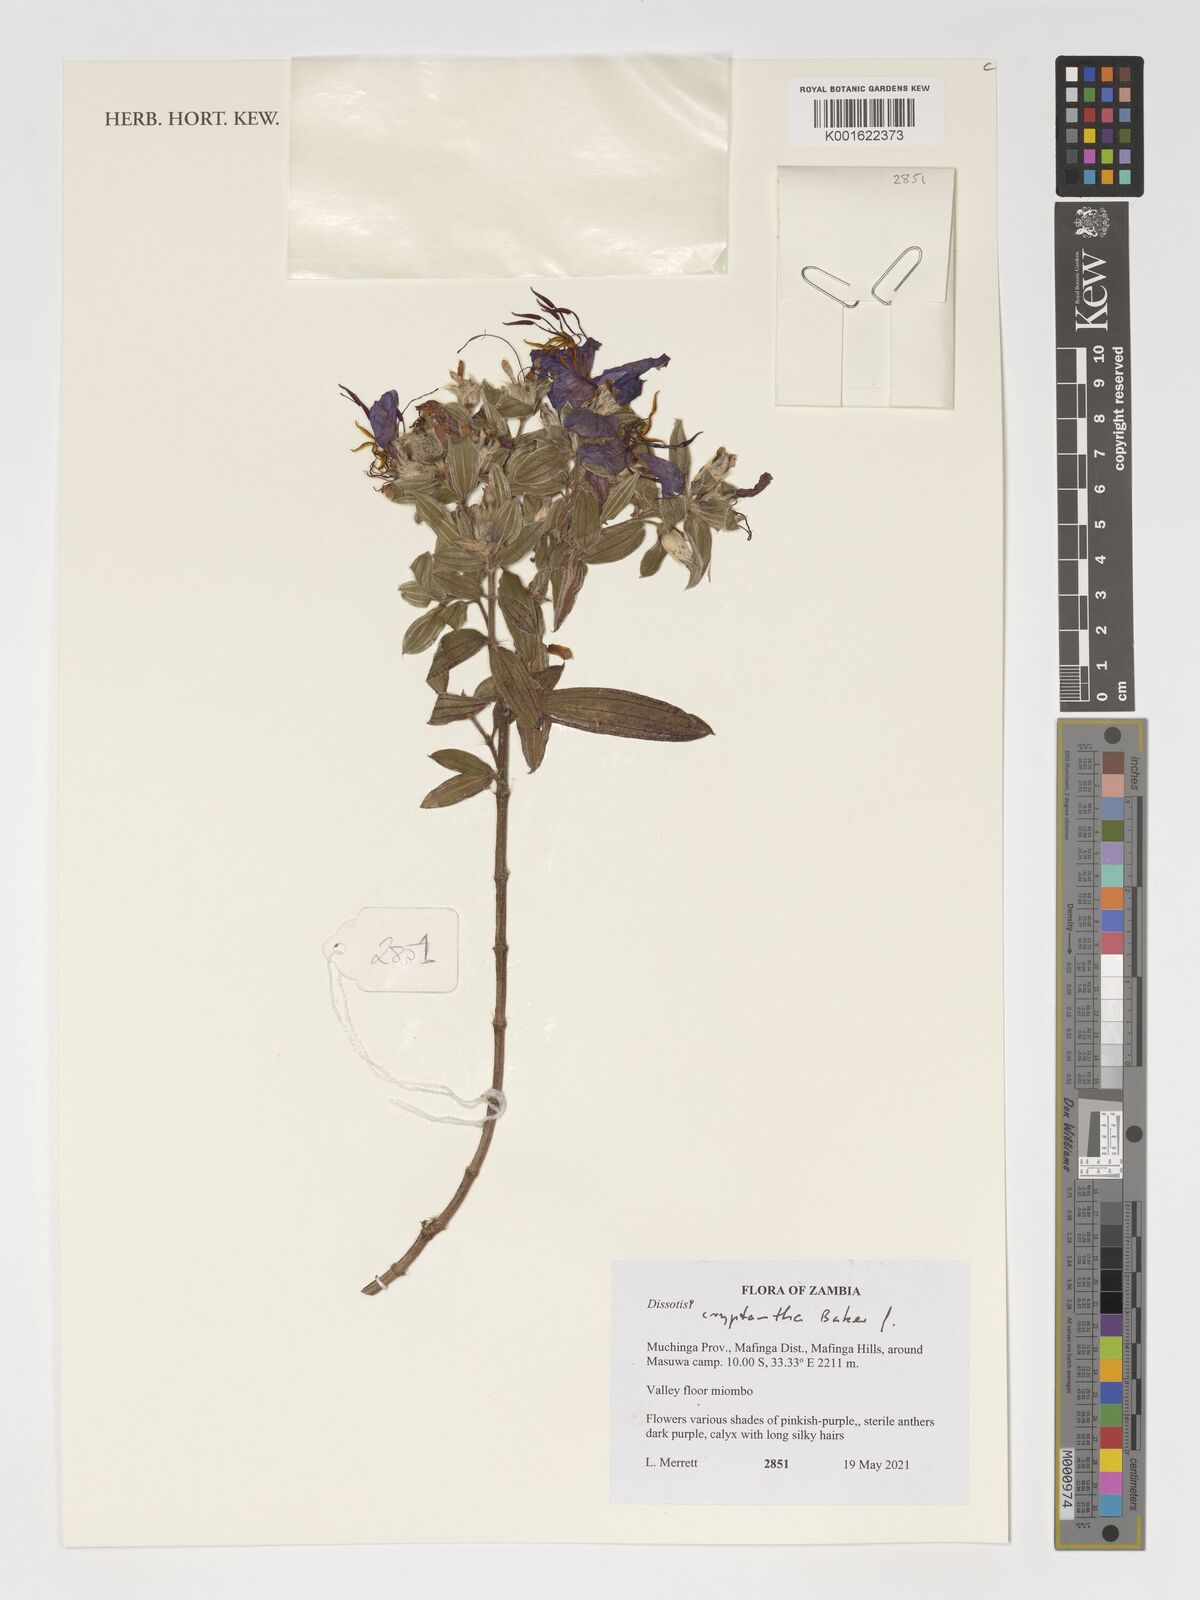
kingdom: Plantae
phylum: Tracheophyta
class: Magnoliopsida
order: Myrtales
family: Melastomataceae
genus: Feliciotis
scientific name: Feliciotis cryptantha
